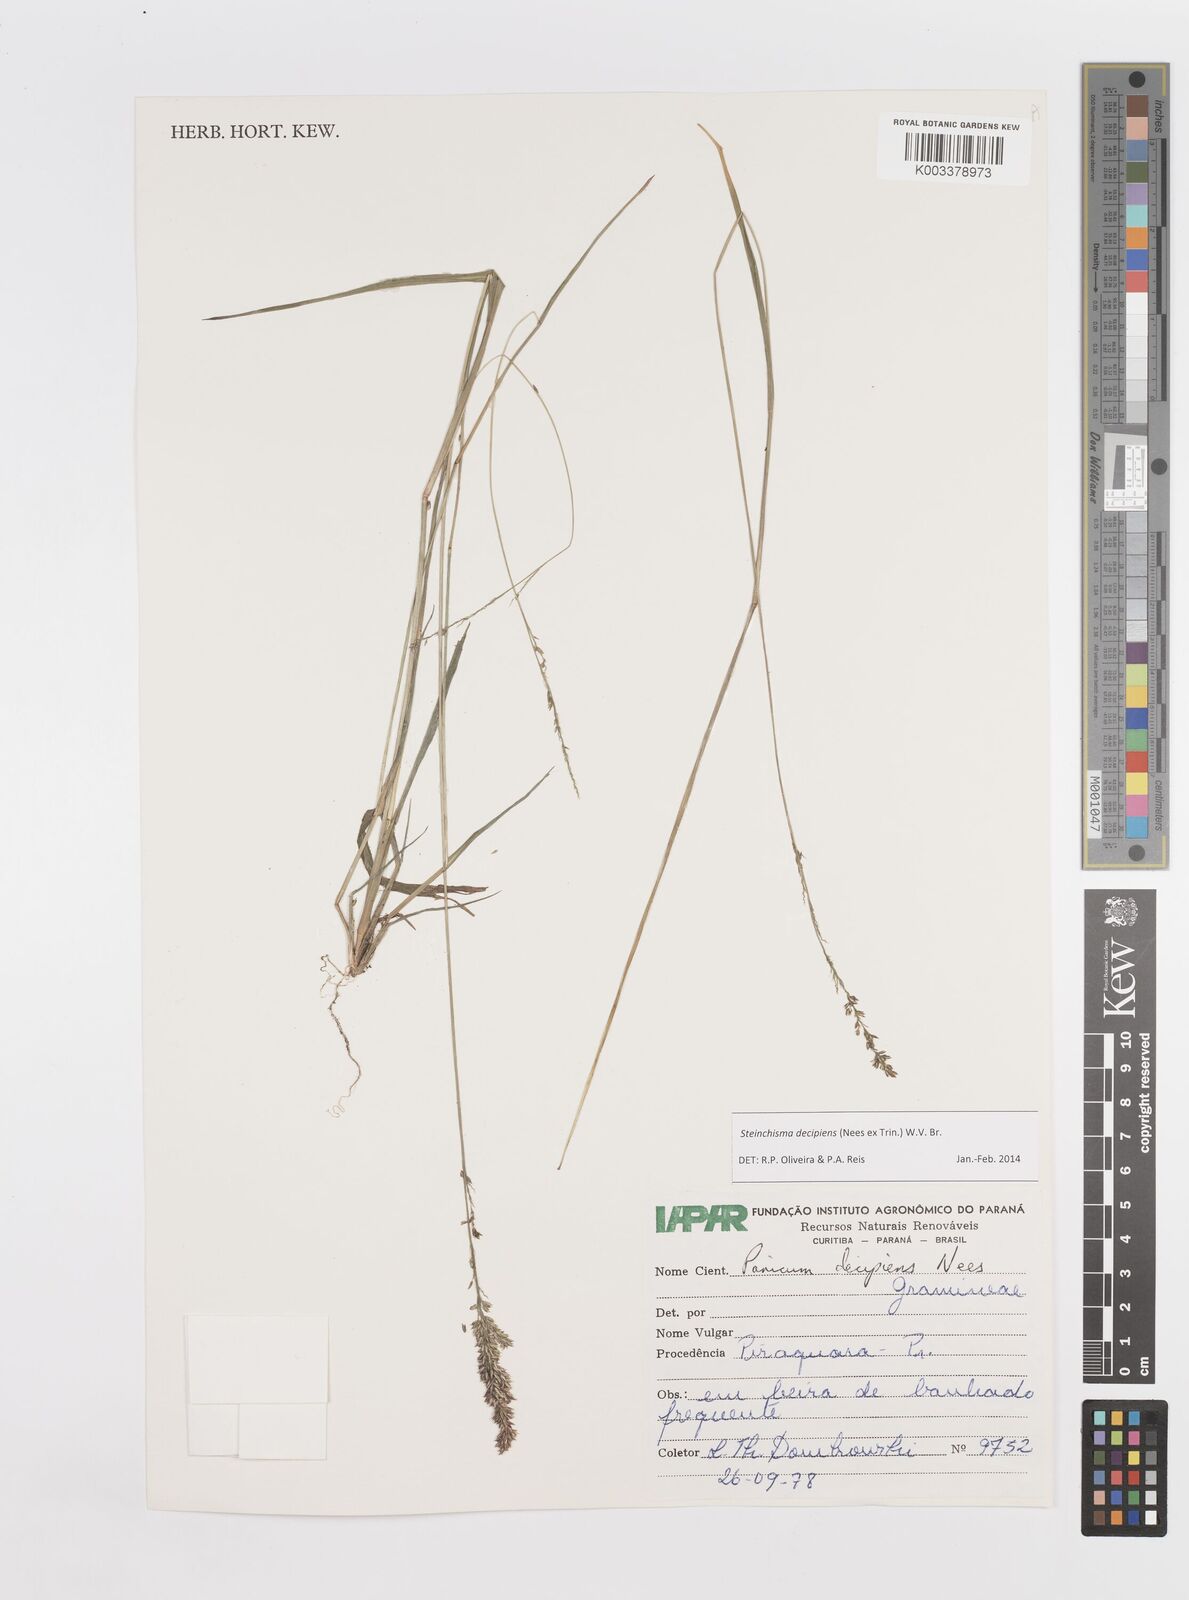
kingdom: Plantae
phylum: Tracheophyta
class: Liliopsida
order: Poales
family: Poaceae
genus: Steinchisma
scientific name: Steinchisma decipiens
